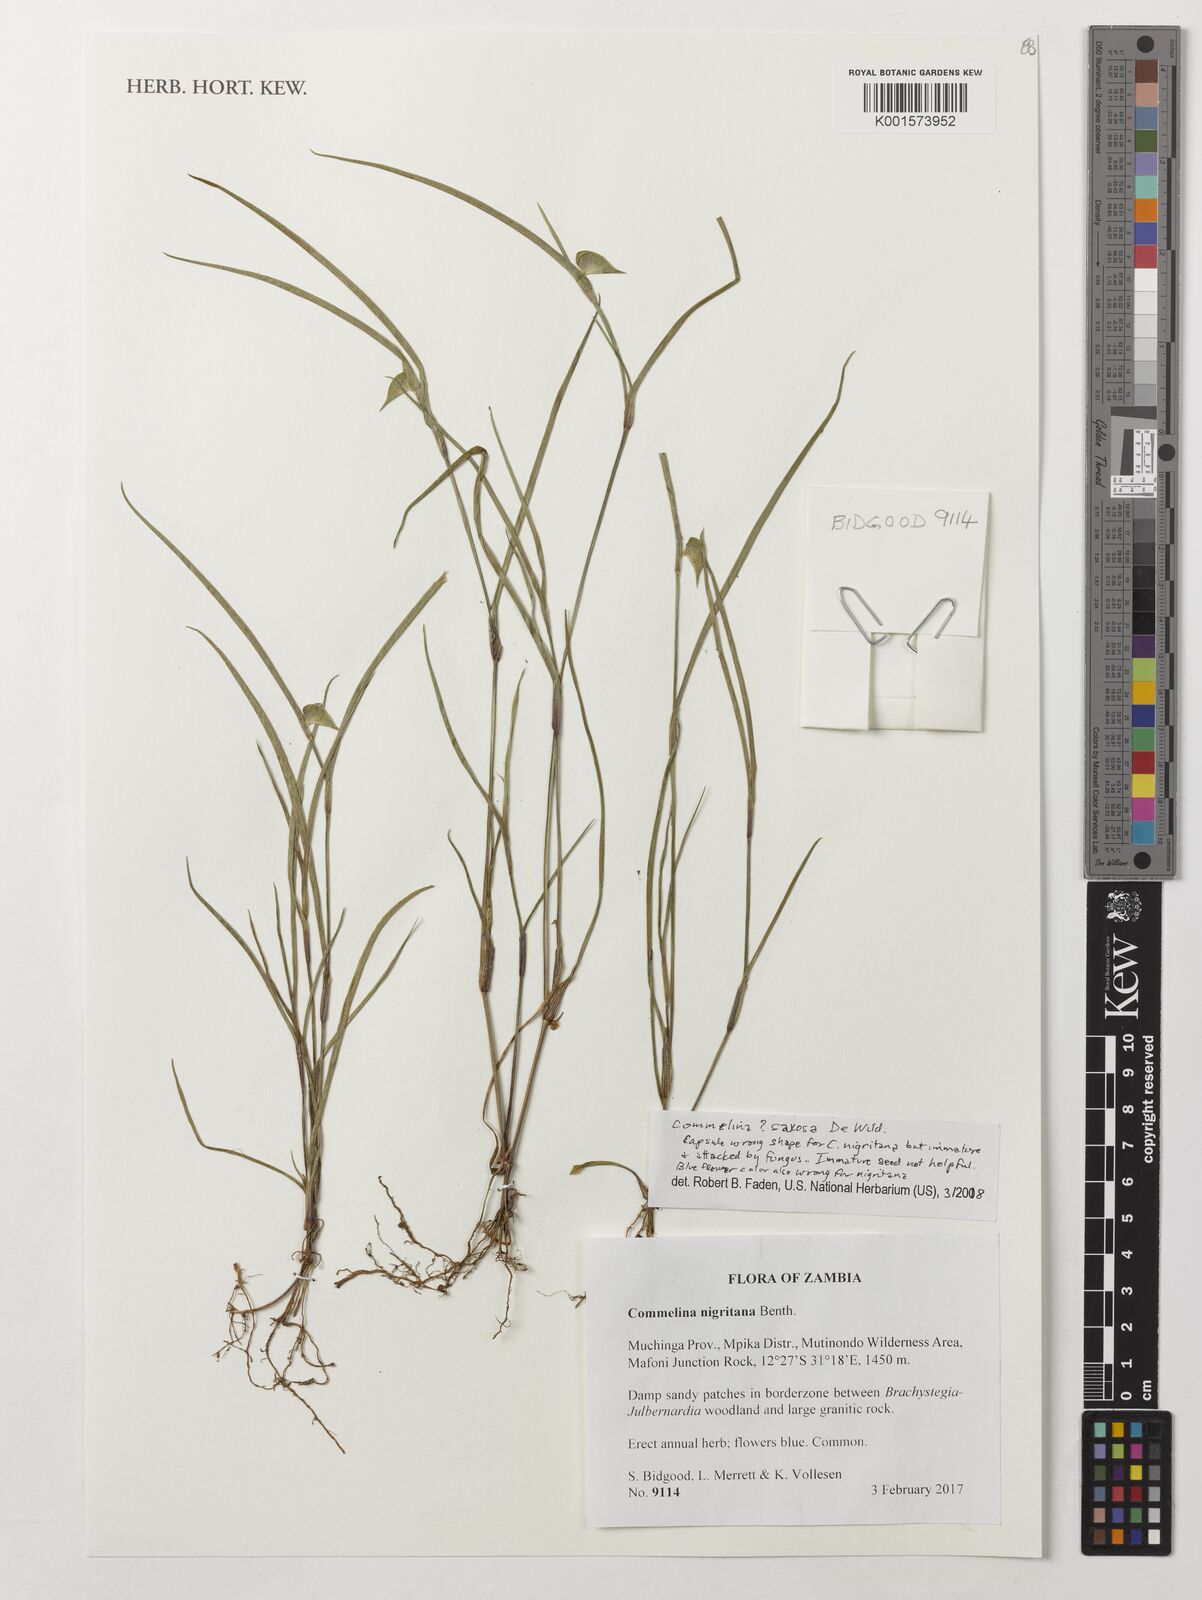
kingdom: Plantae
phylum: Tracheophyta
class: Liliopsida
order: Commelinales
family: Commelinaceae
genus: Commelina
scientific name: Commelina saxosa
